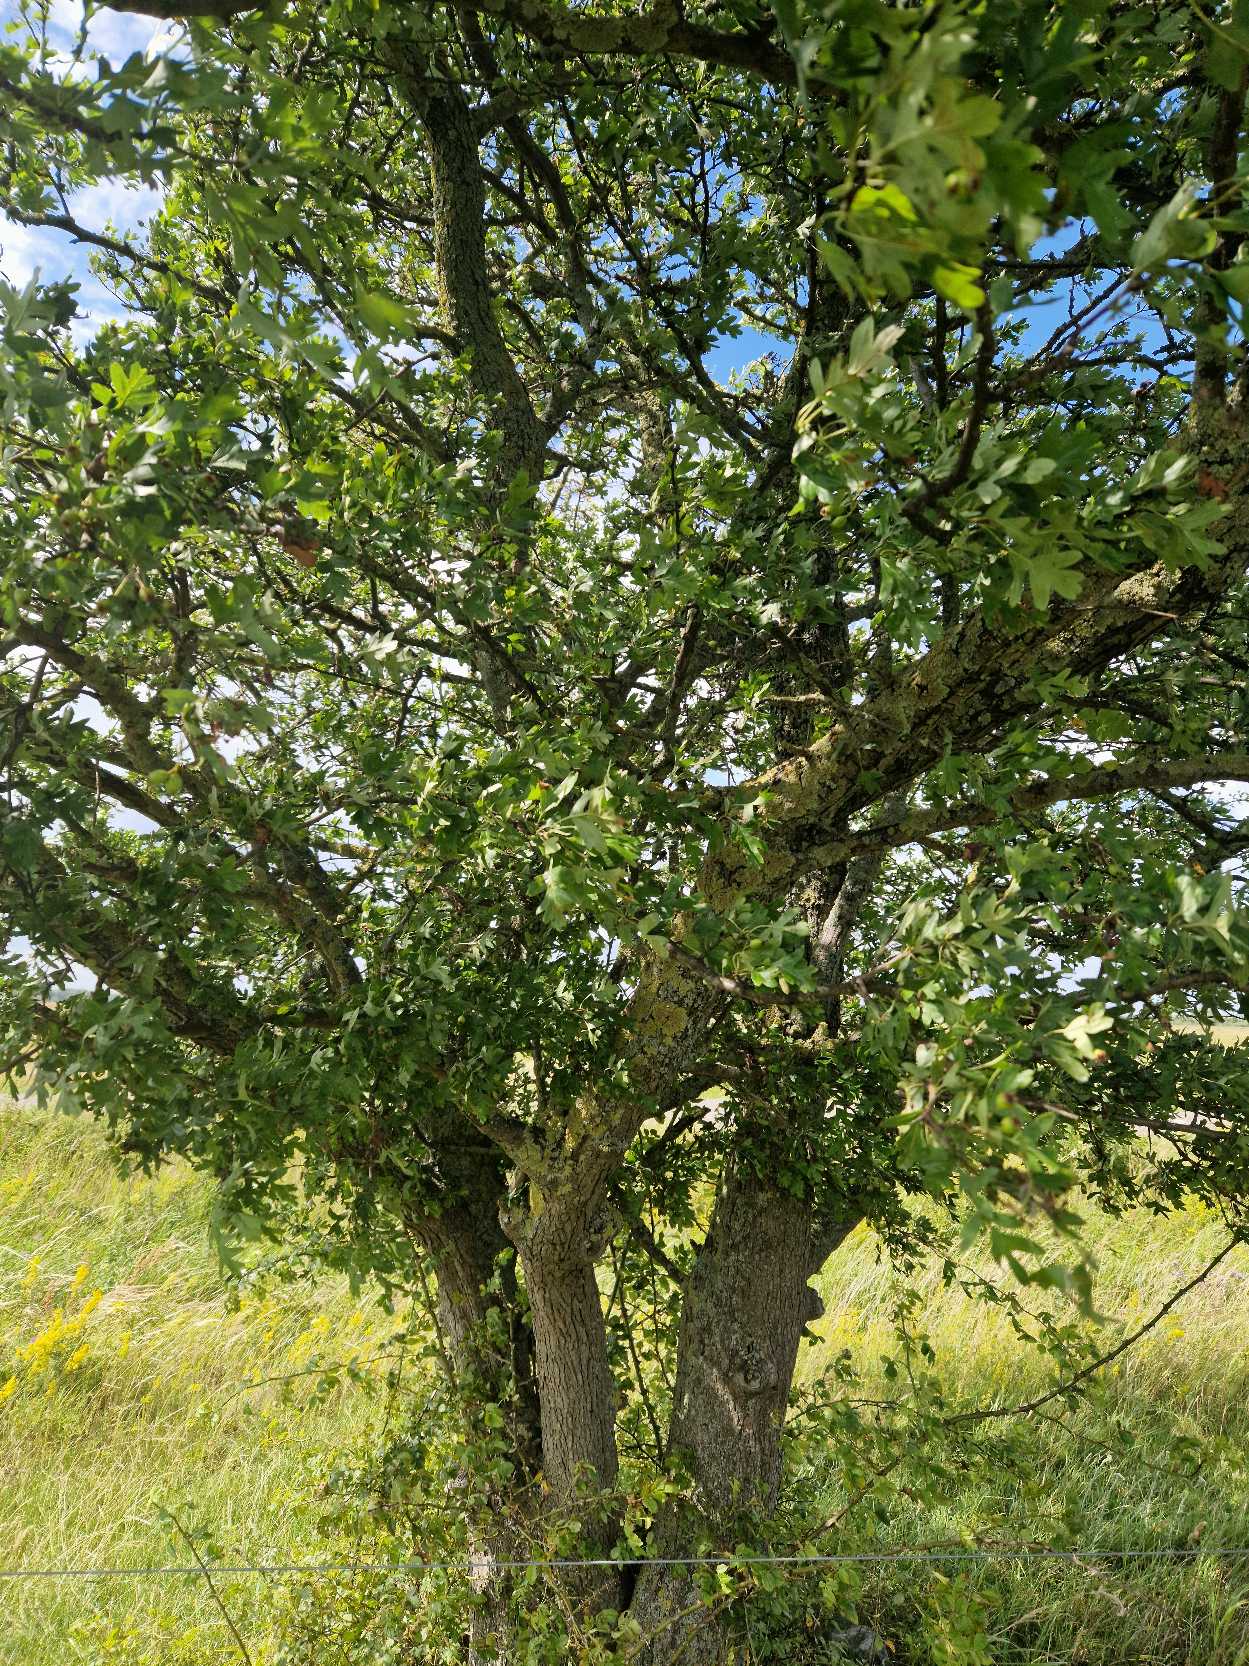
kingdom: Plantae
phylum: Tracheophyta
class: Magnoliopsida
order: Rosales
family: Rosaceae
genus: Crataegus
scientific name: Crataegus monogyna
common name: Engriflet hvidtjørn
